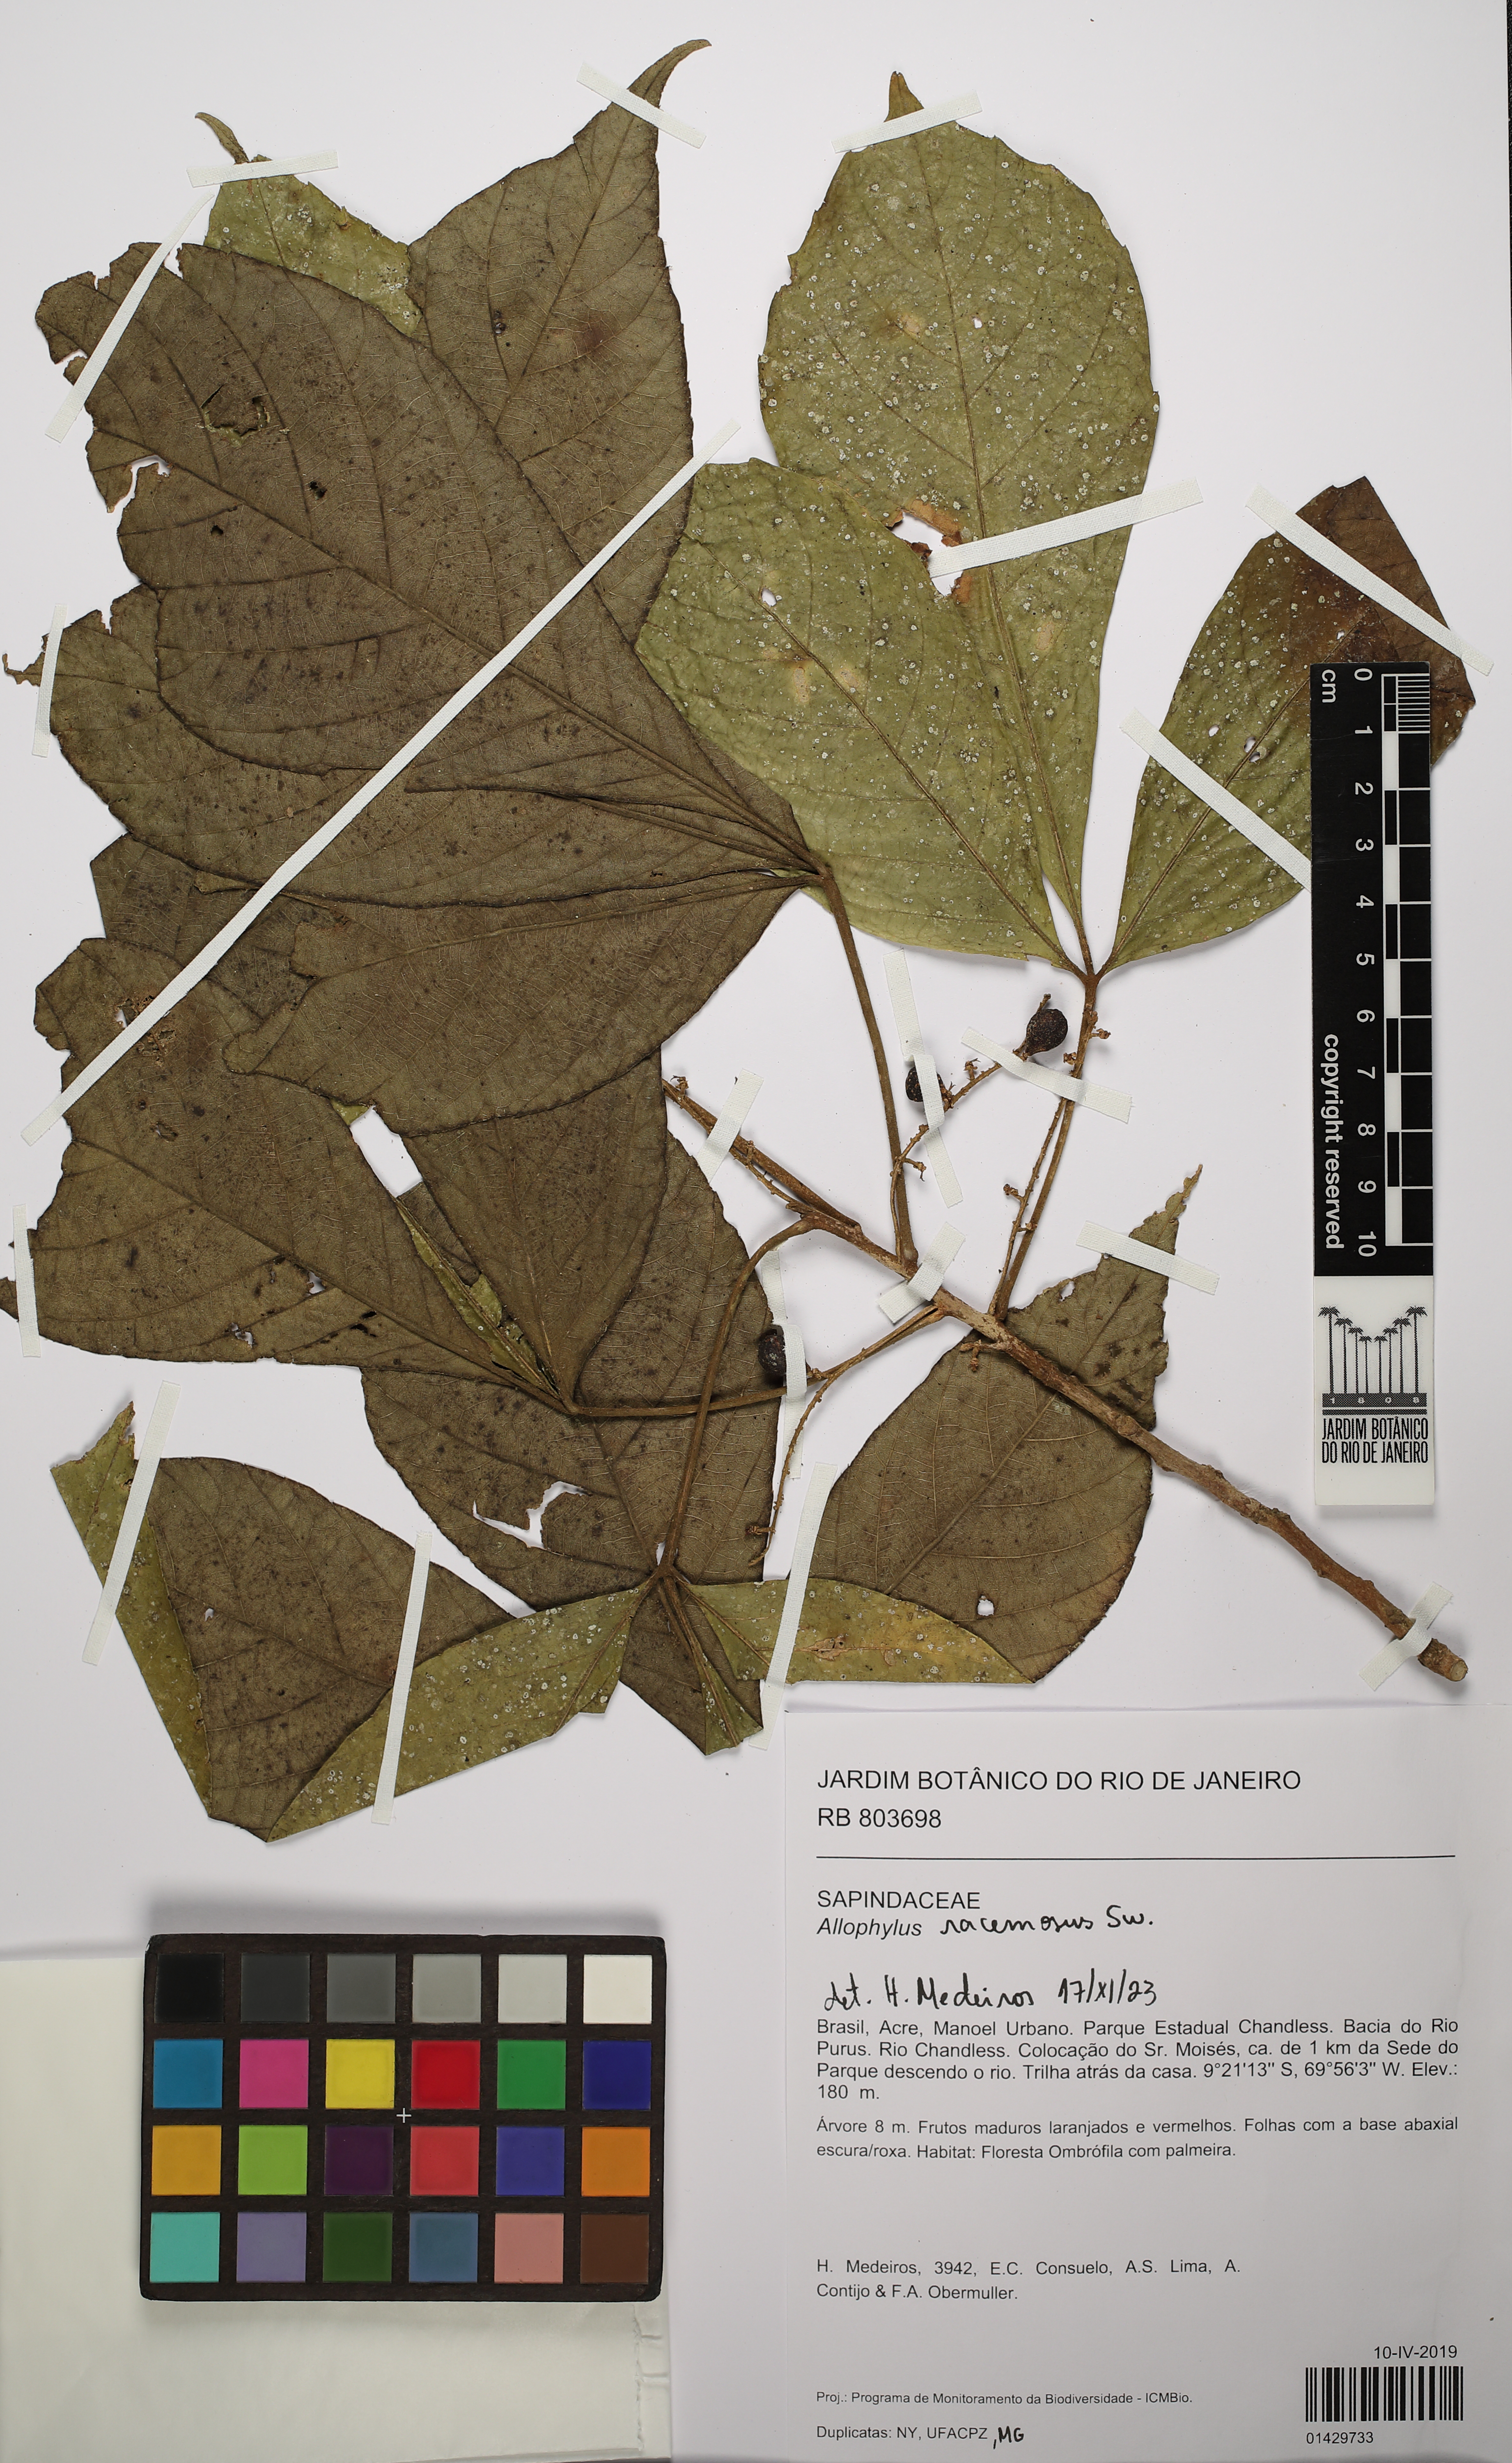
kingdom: Plantae
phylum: Tracheophyta
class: Magnoliopsida
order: Sapindales
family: Sapindaceae
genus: Allophylus
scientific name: Allophylus racemosus
